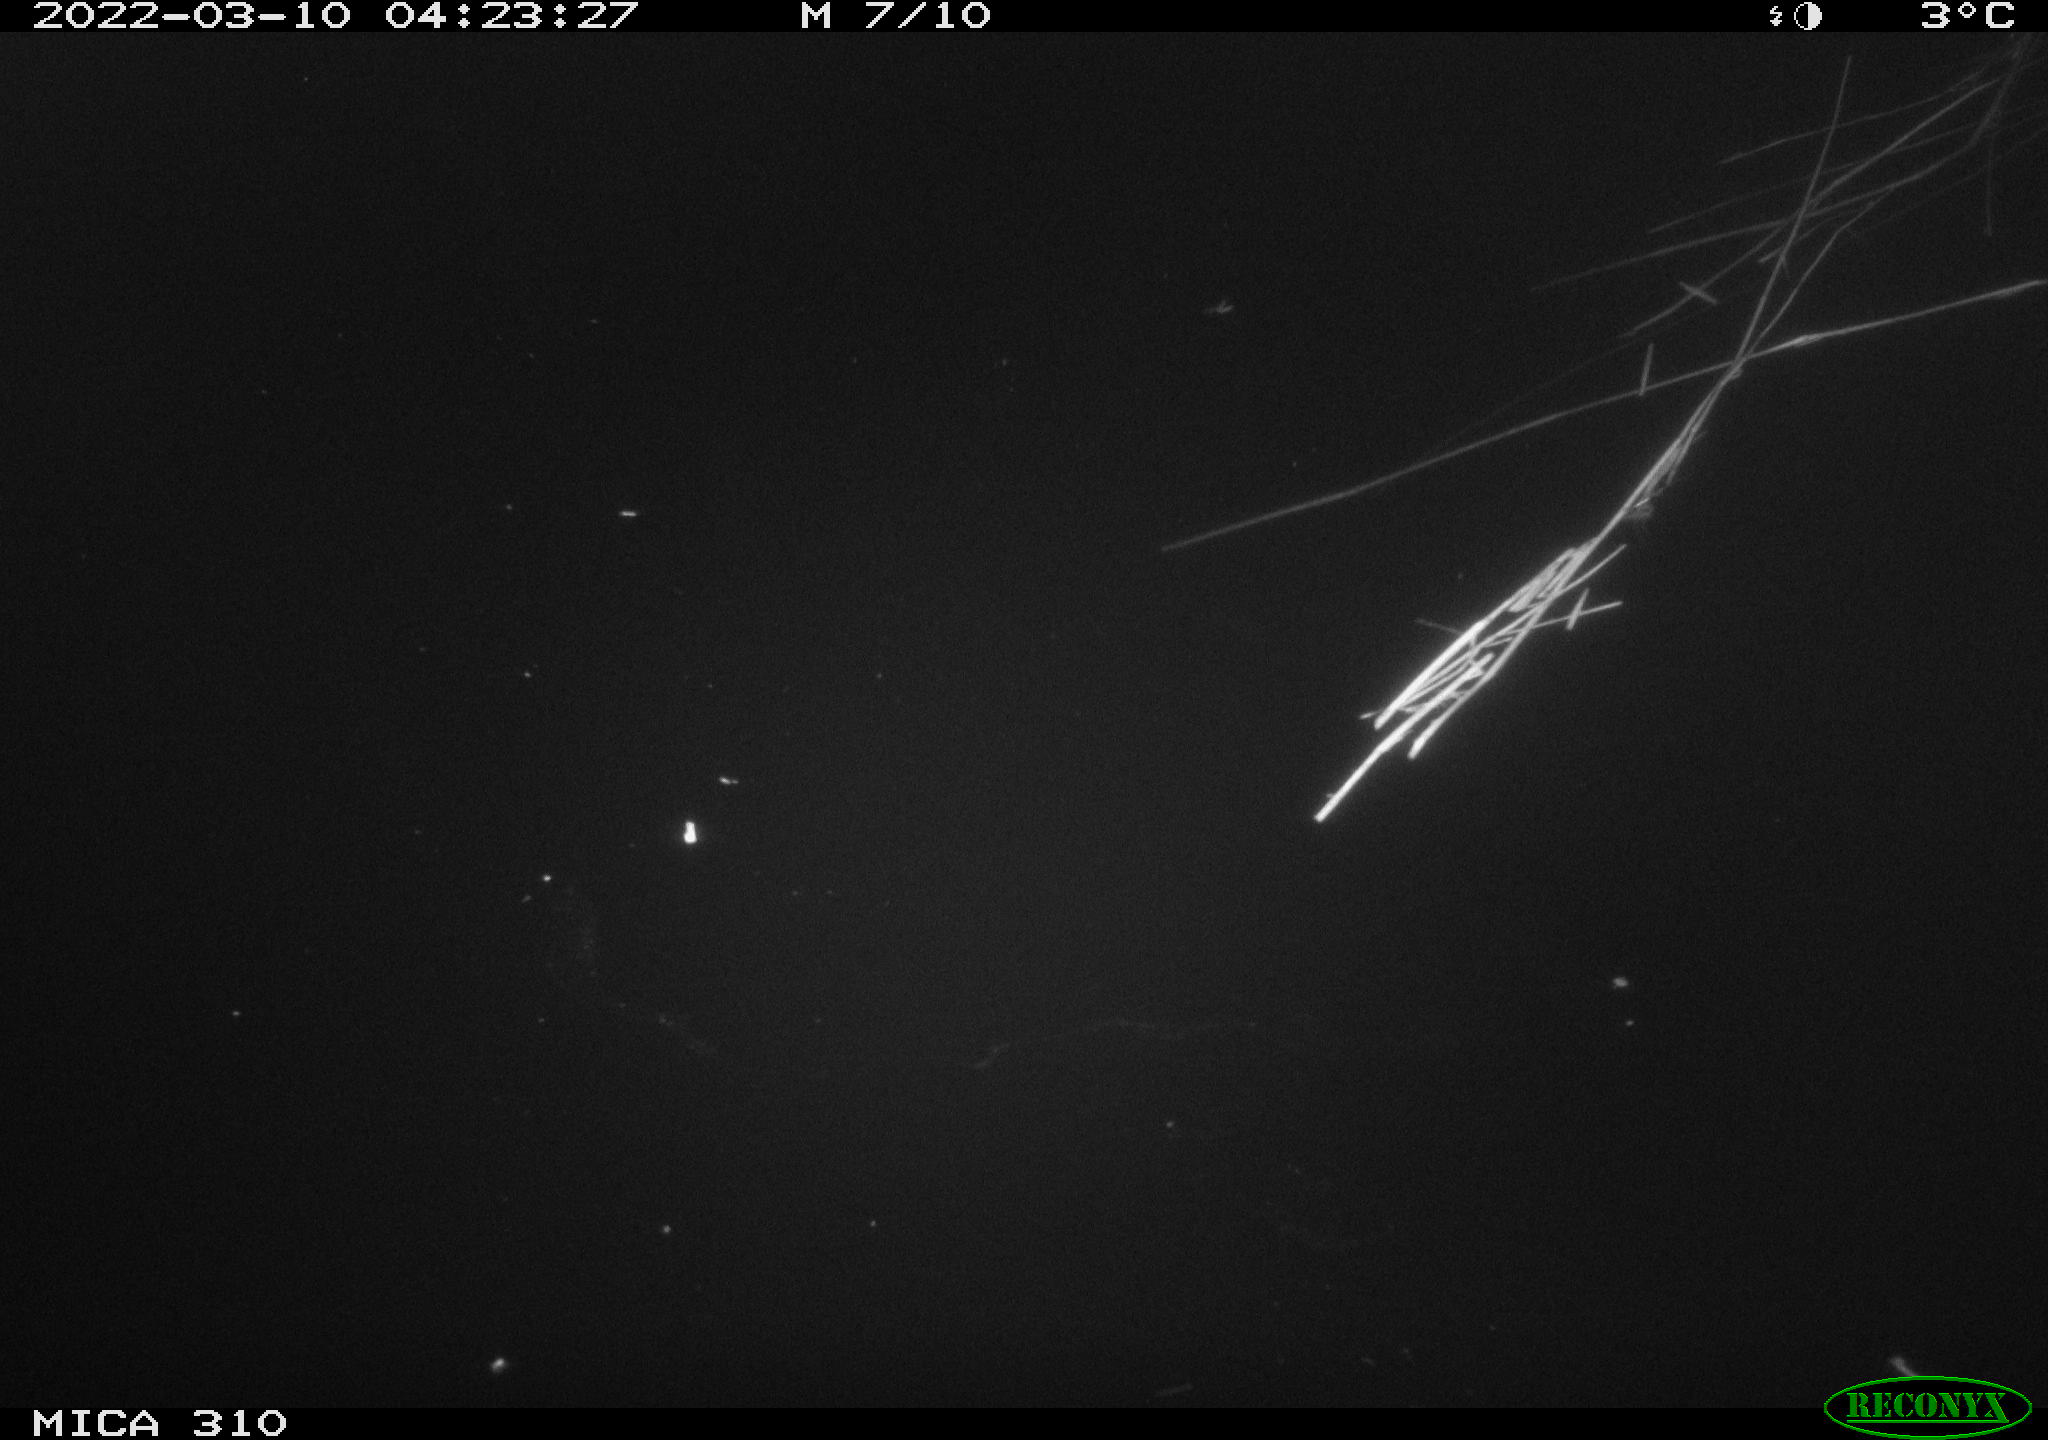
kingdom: Animalia
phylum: Chordata
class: Aves
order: Anseriformes
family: Anatidae
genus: Anas
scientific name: Anas platyrhynchos
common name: Mallard
